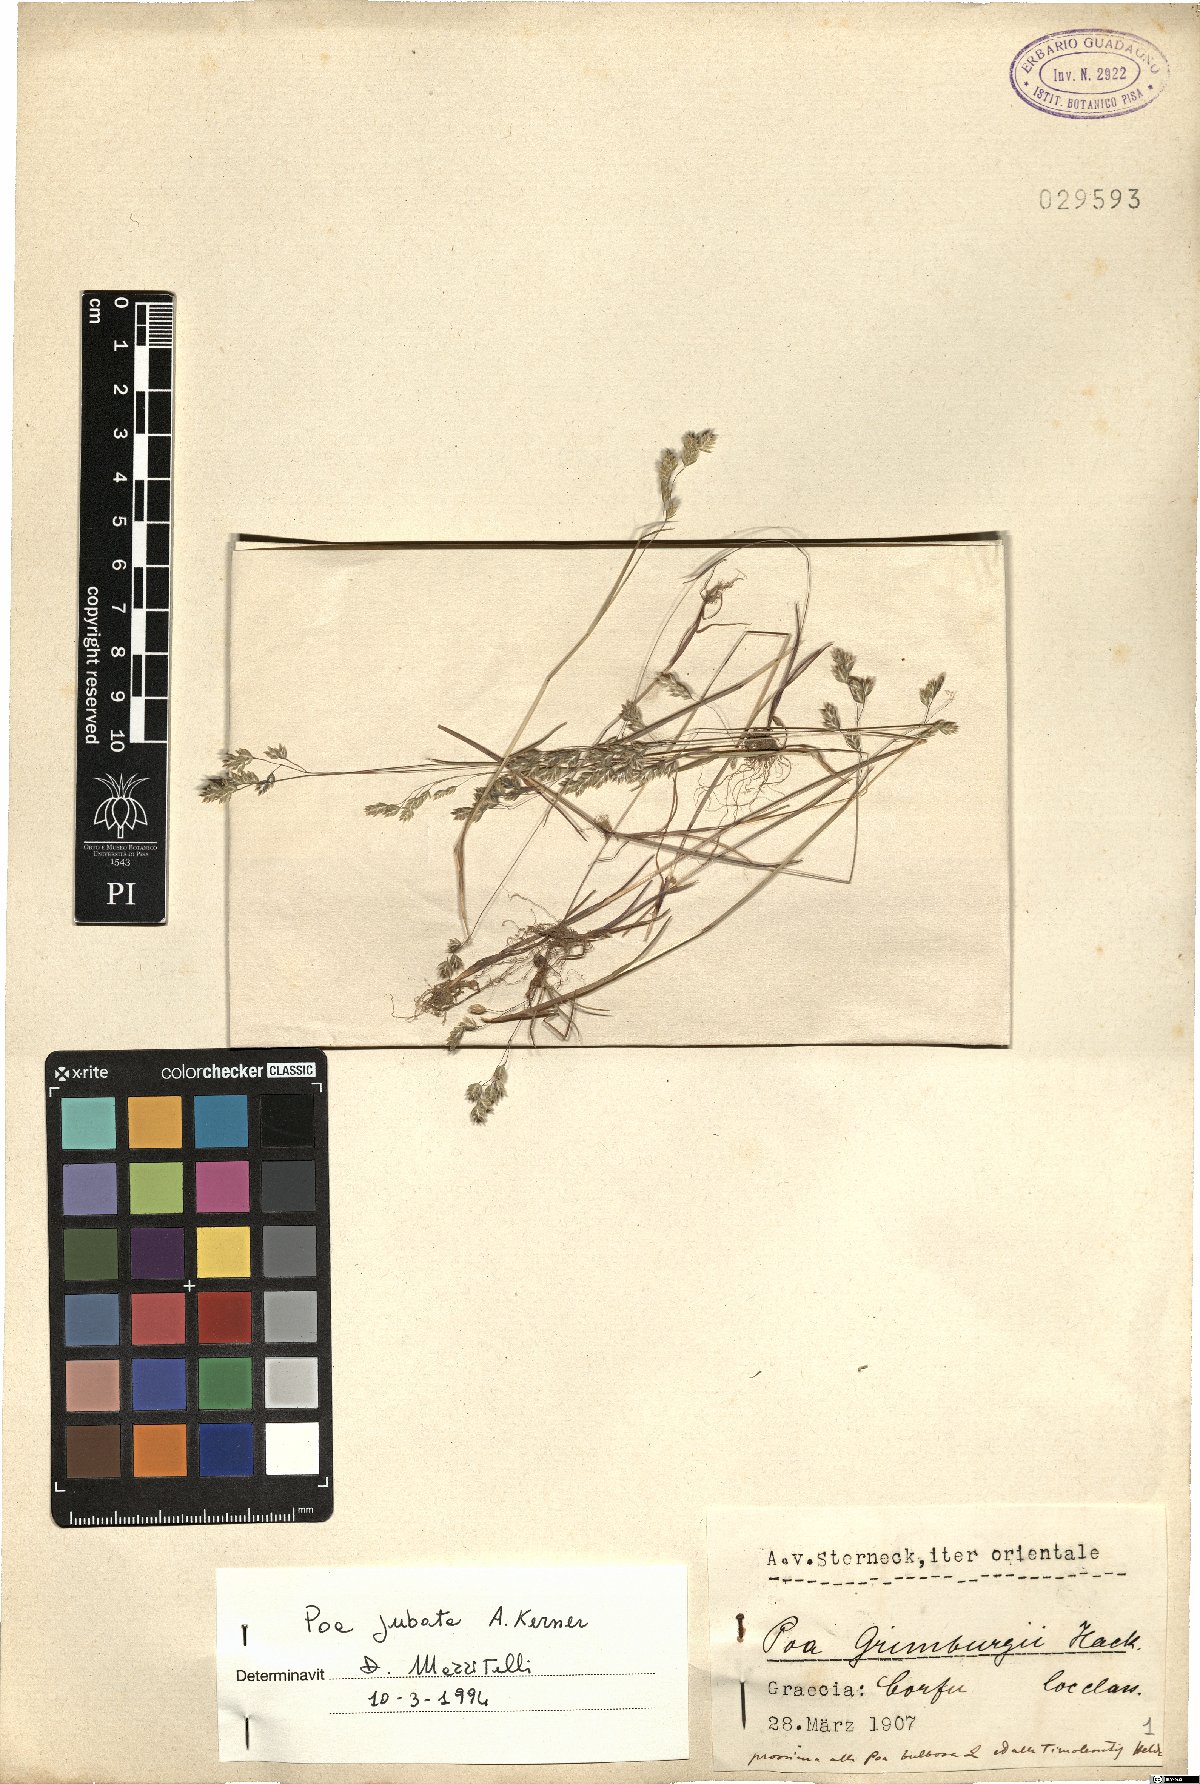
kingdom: Plantae
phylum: Tracheophyta
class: Liliopsida
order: Poales
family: Poaceae
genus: Poa
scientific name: Poa jubata
